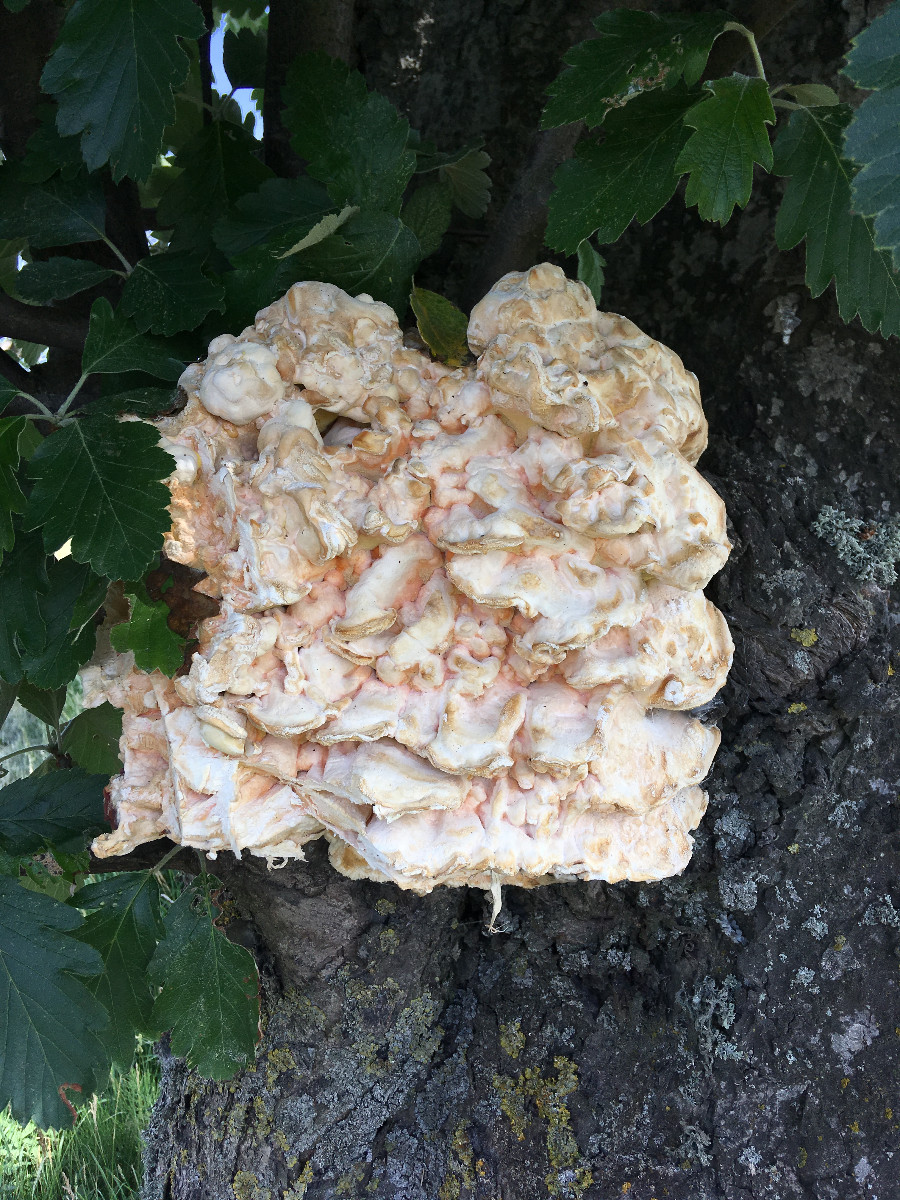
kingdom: Fungi
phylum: Basidiomycota
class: Agaricomycetes
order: Polyporales
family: Laetiporaceae
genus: Laetiporus
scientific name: Laetiporus sulphureus
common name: svovlporesvamp
